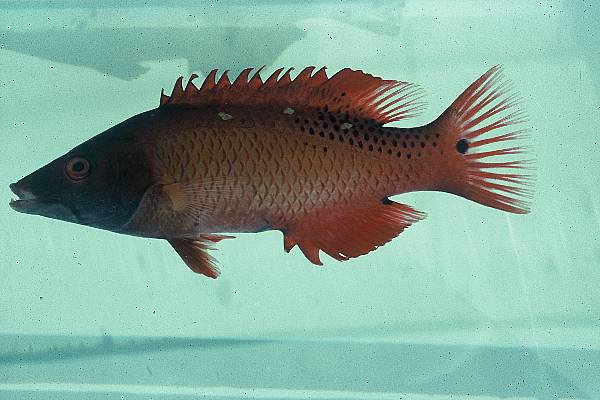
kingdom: Animalia
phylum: Chordata
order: Perciformes
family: Labridae
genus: Bodianus
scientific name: Bodianus diana
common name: Diana's hogfish
